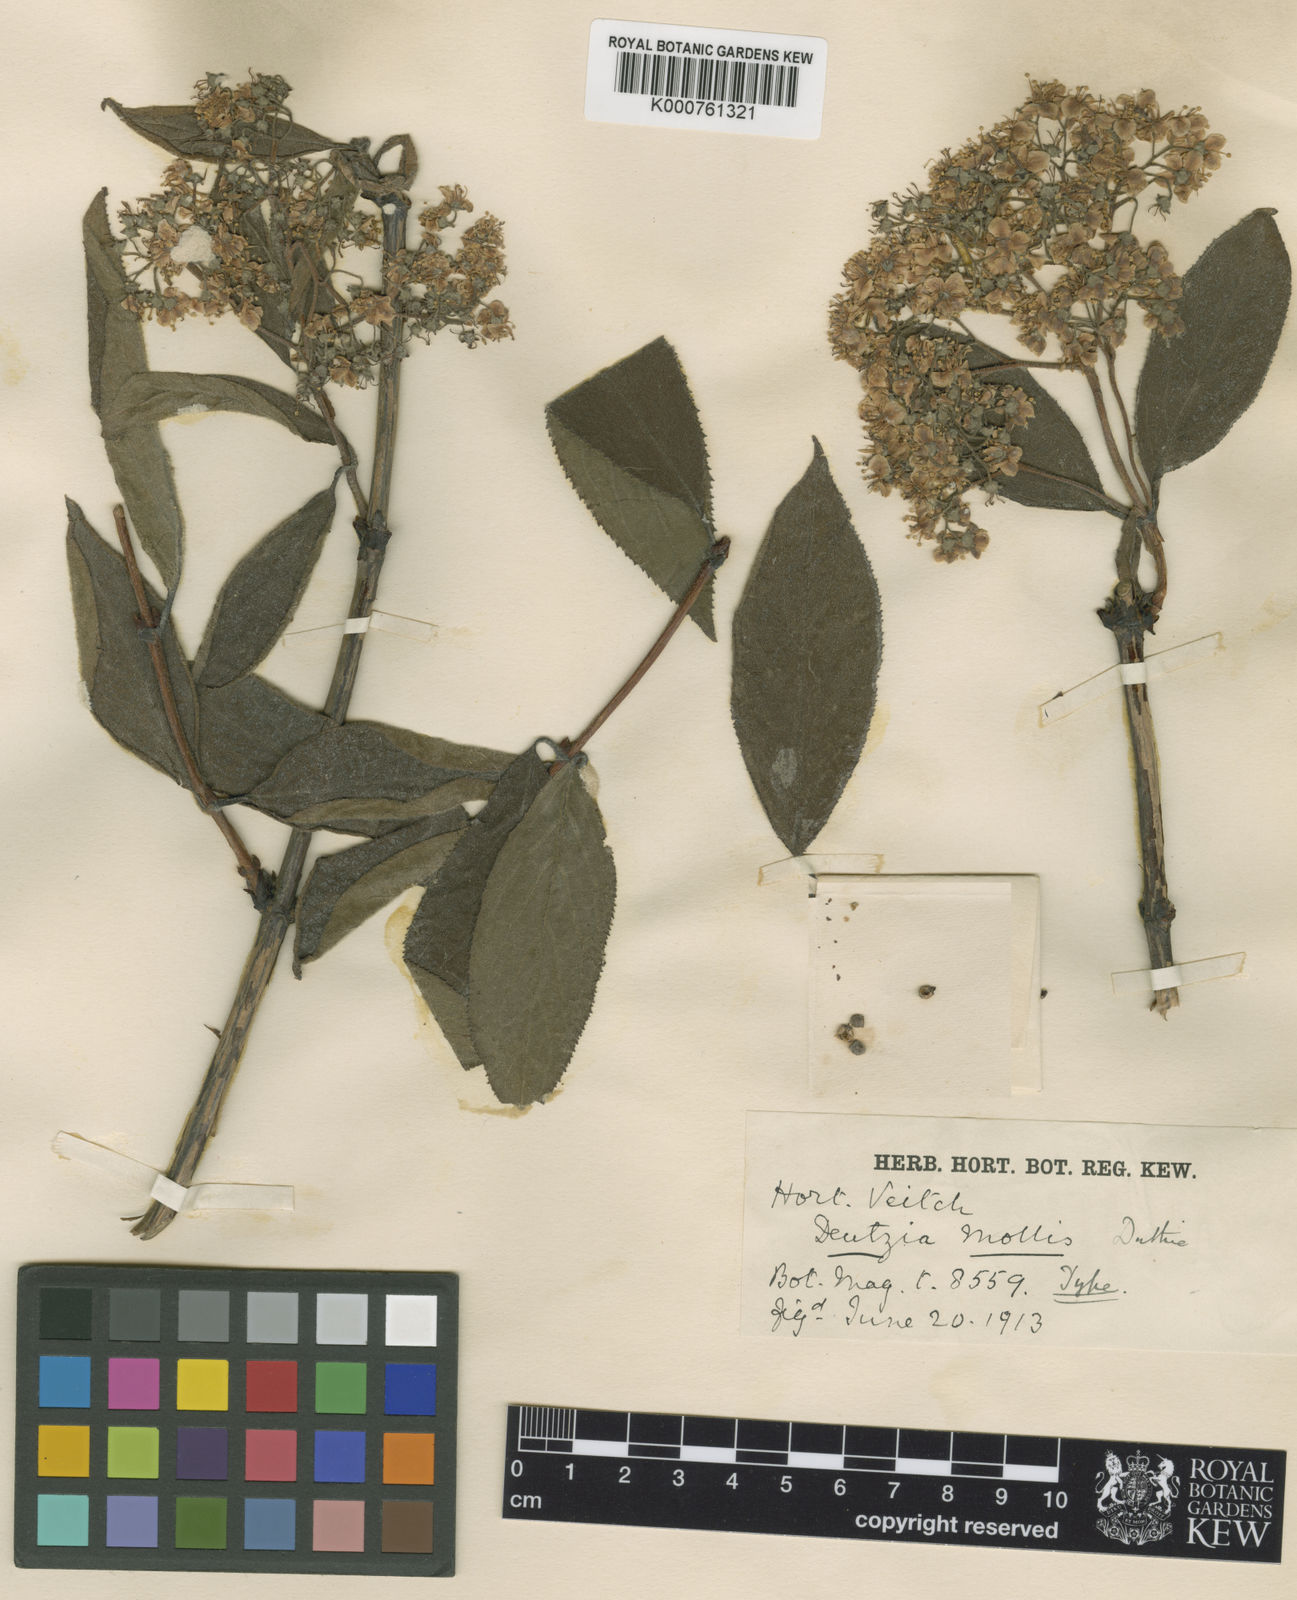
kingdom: Plantae
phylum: Tracheophyta
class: Magnoliopsida
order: Cornales
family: Hydrangeaceae
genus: Deutzia
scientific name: Deutzia mollis
